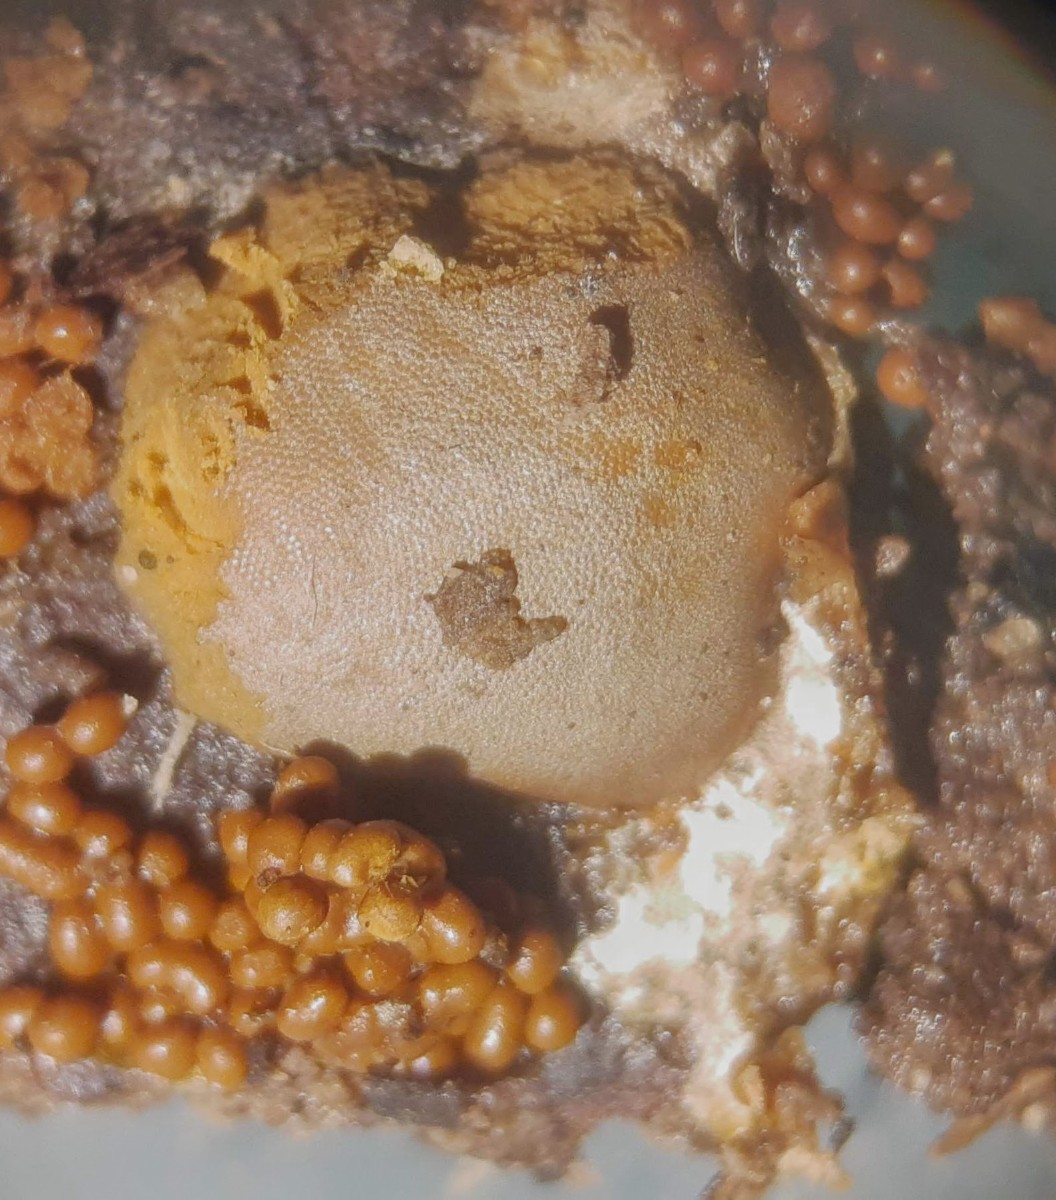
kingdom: Protozoa
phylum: Mycetozoa
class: Myxomycetes
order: Trichiales
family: Dictydiaethaliaceae
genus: Dictydiaethalium
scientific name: Dictydiaethalium plumbeum
